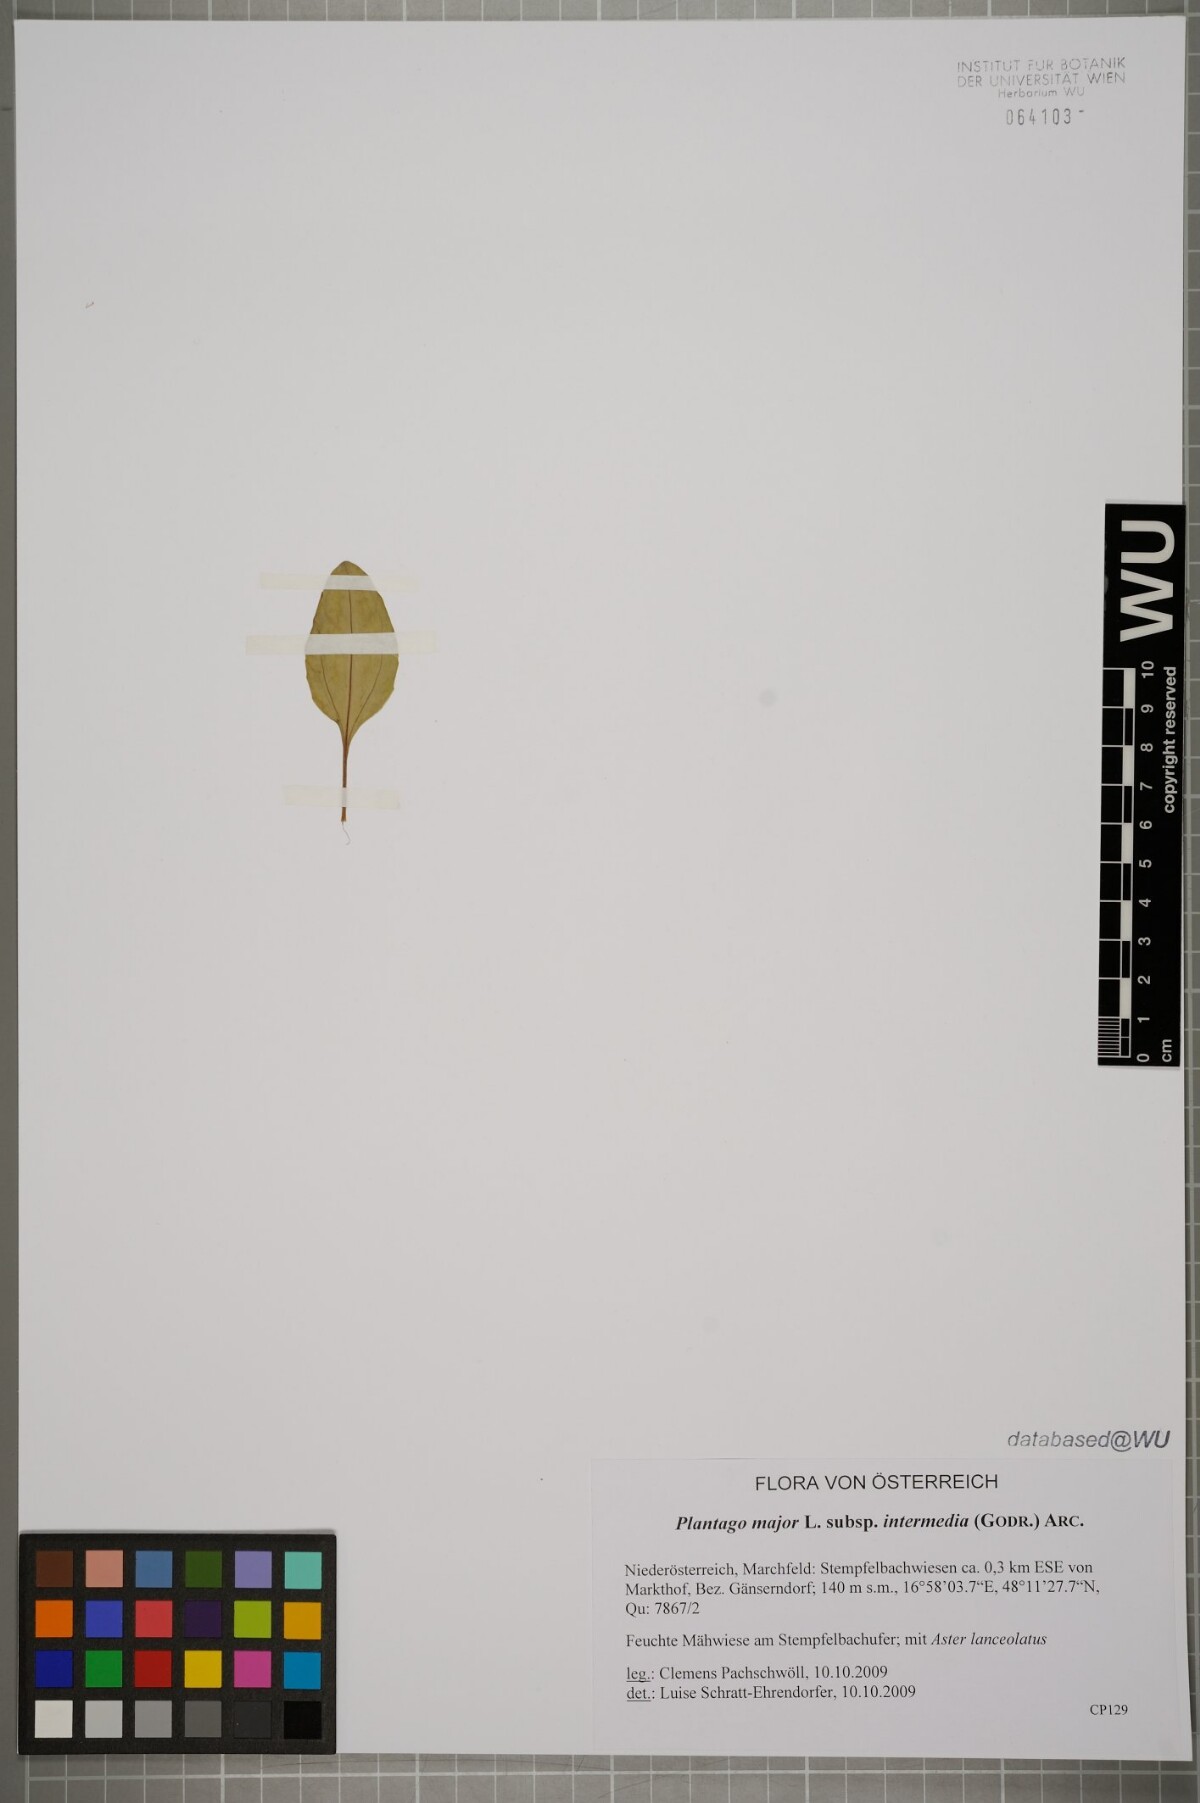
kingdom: Plantae
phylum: Tracheophyta
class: Magnoliopsida
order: Lamiales
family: Plantaginaceae
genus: Plantago
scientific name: Plantago uliginosa
